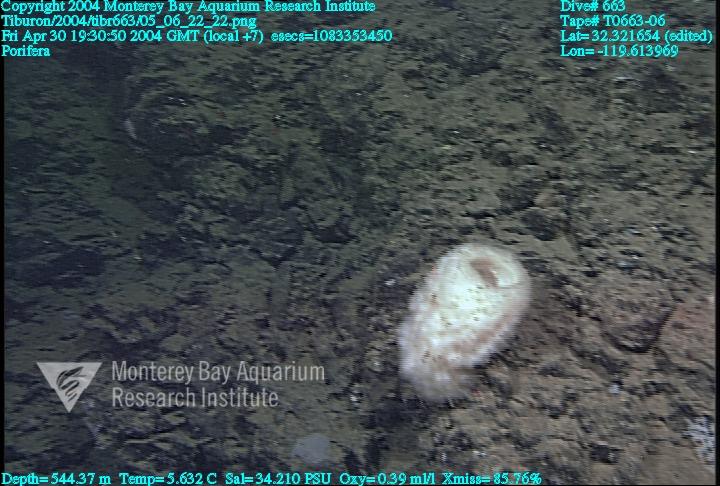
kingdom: Animalia
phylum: Porifera
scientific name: Porifera
